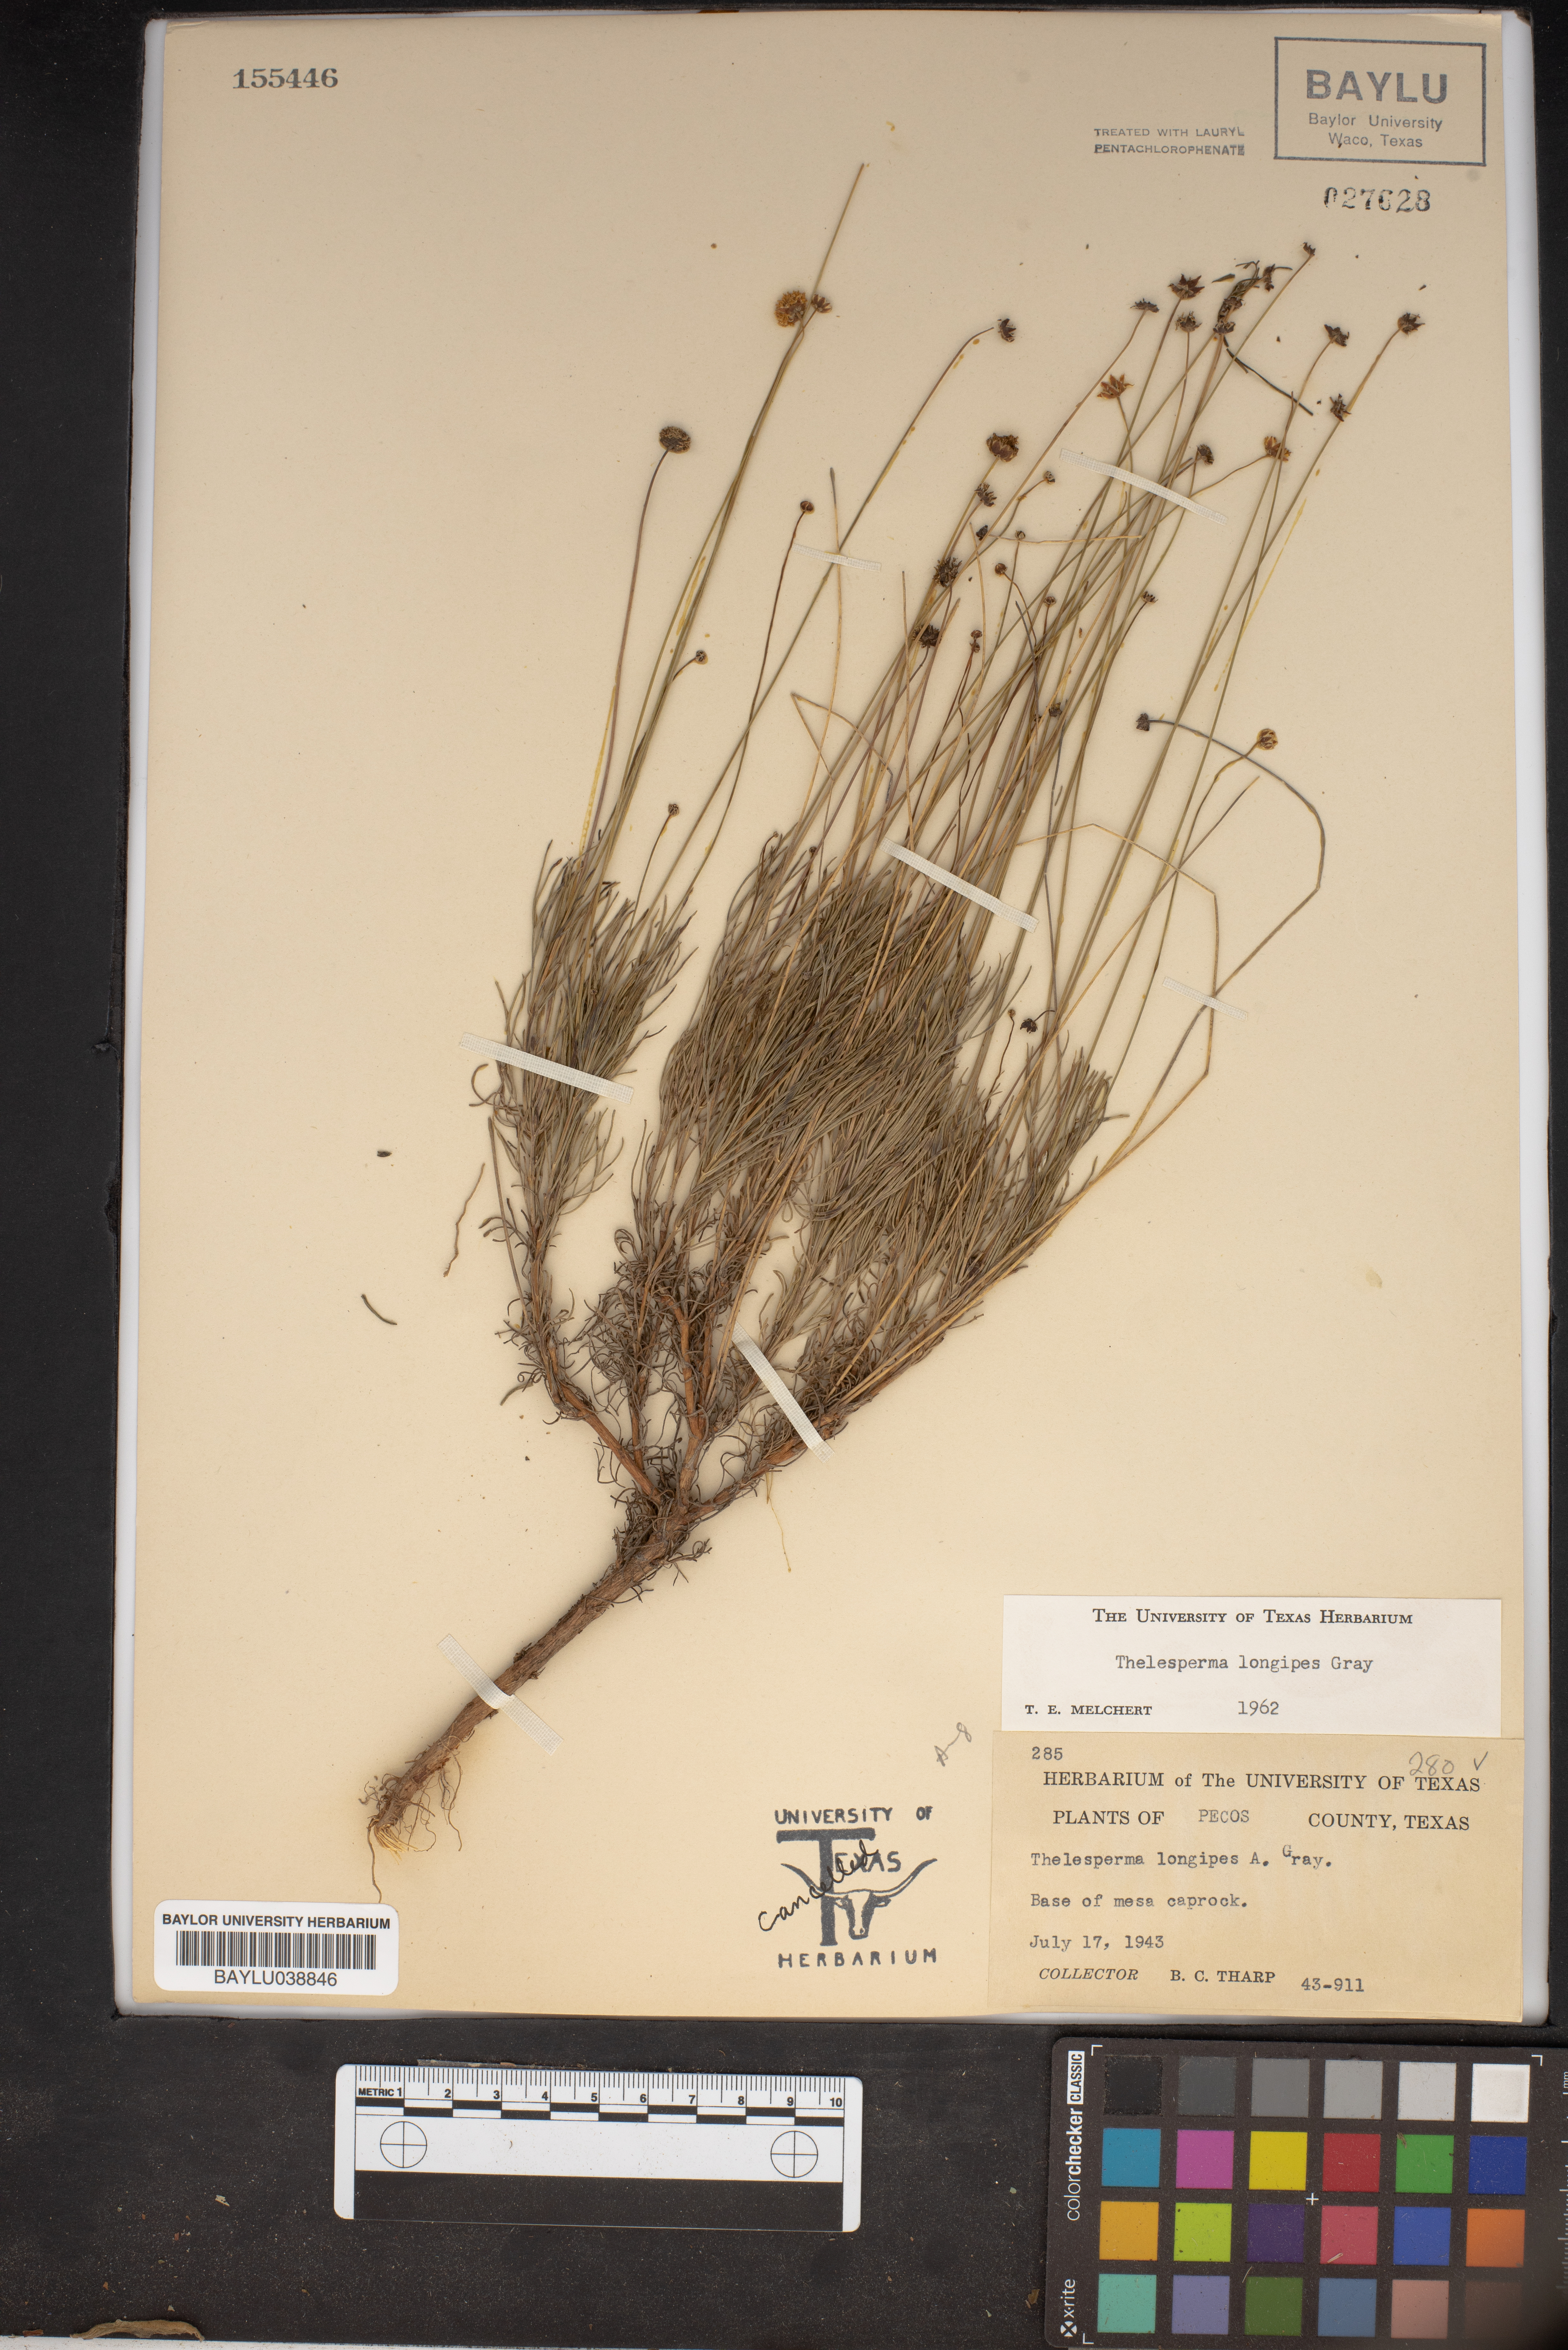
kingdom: Plantae
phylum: Tracheophyta
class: Magnoliopsida
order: Asterales
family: Asteraceae
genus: Thelesperma
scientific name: Thelesperma longipes
